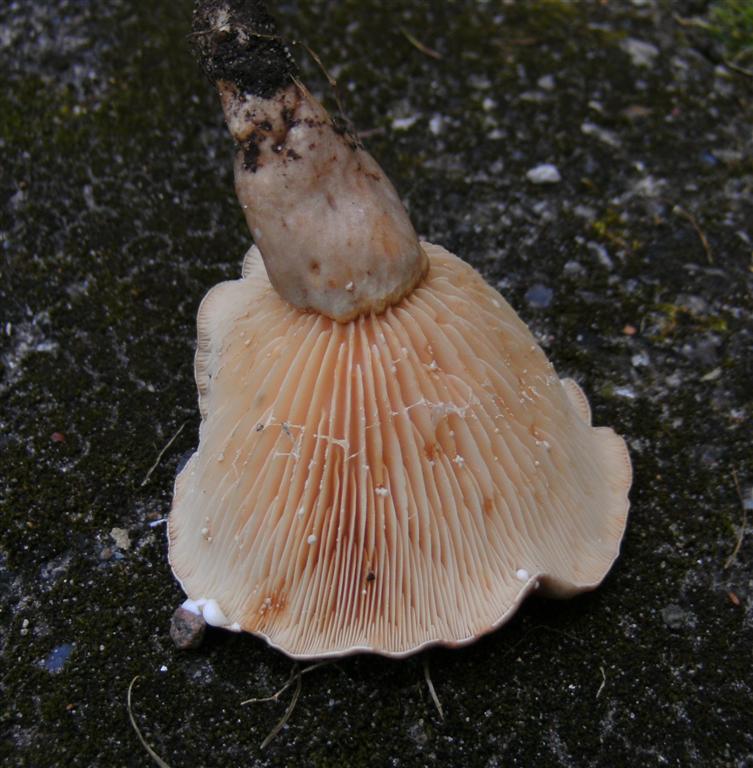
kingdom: Fungi
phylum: Basidiomycota
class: Agaricomycetes
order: Russulales
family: Russulaceae
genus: Lactarius
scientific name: Lactarius pyrogalus
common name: hassel-mælkehat
